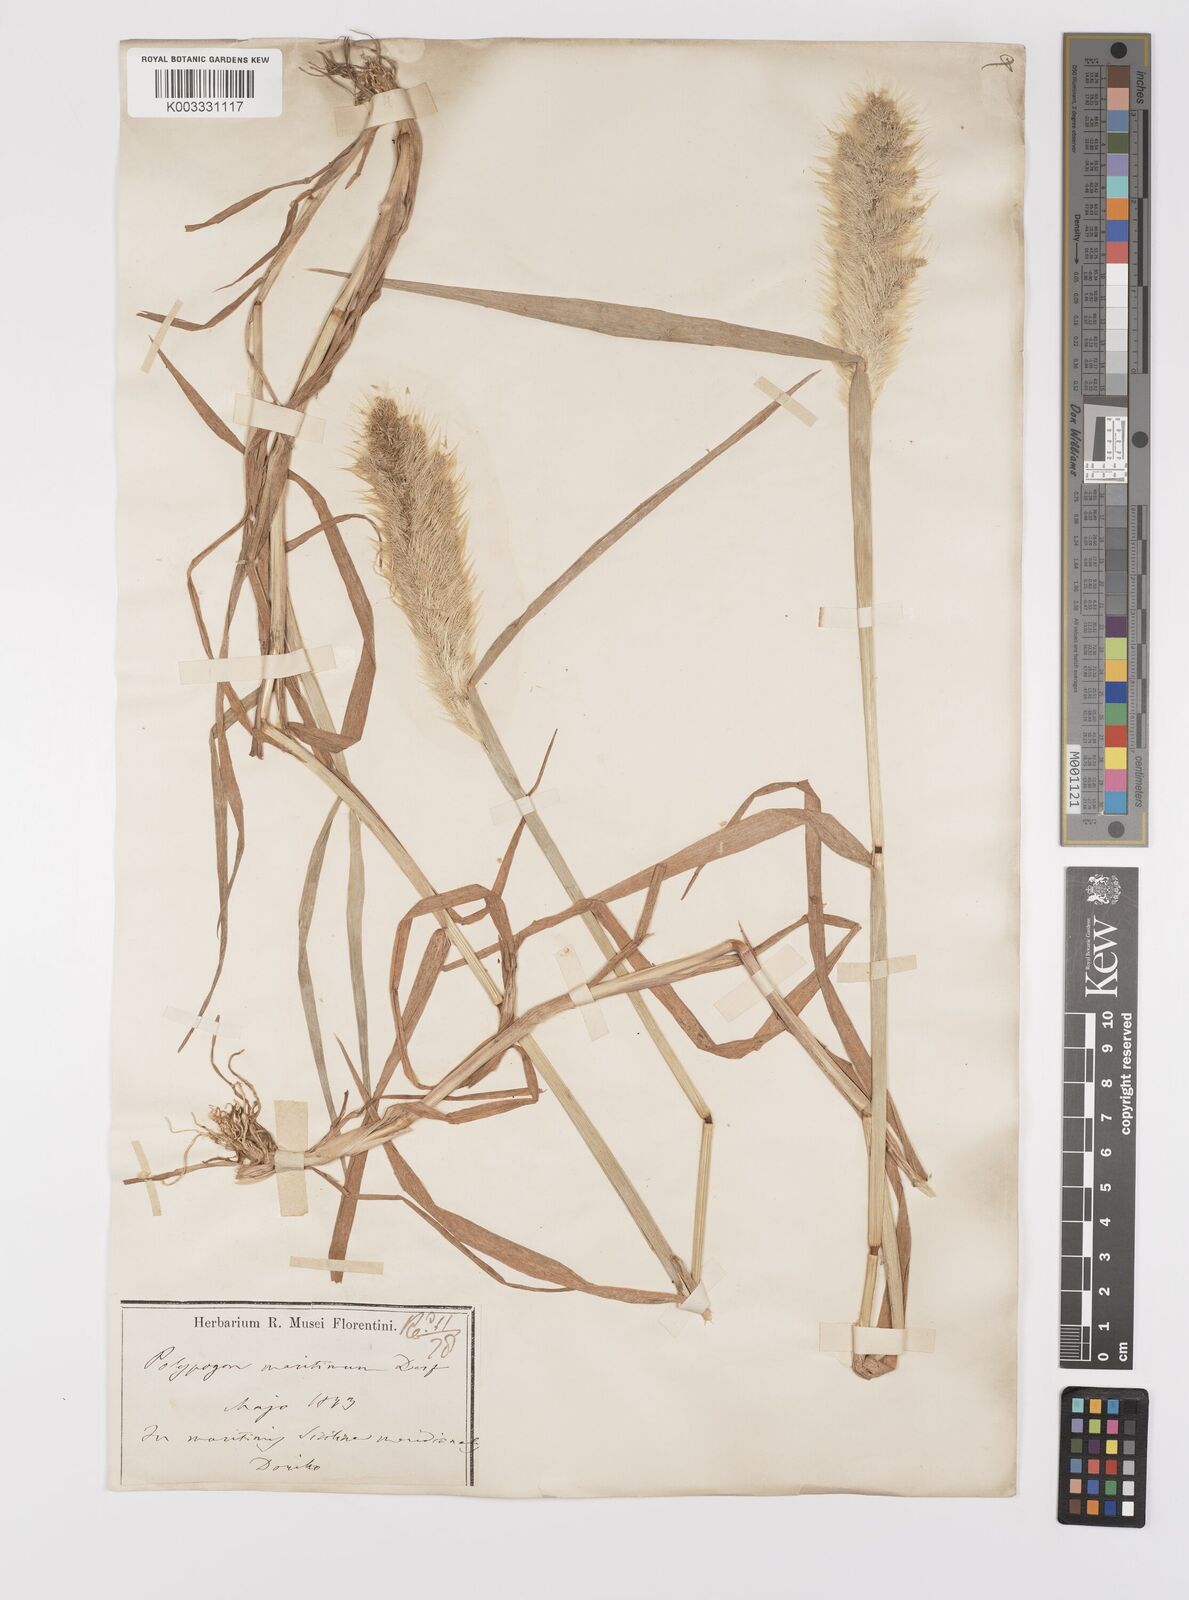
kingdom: Plantae
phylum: Tracheophyta
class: Liliopsida
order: Poales
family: Poaceae
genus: Polypogon
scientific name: Polypogon monspeliensis
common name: Annual rabbitsfoot grass
